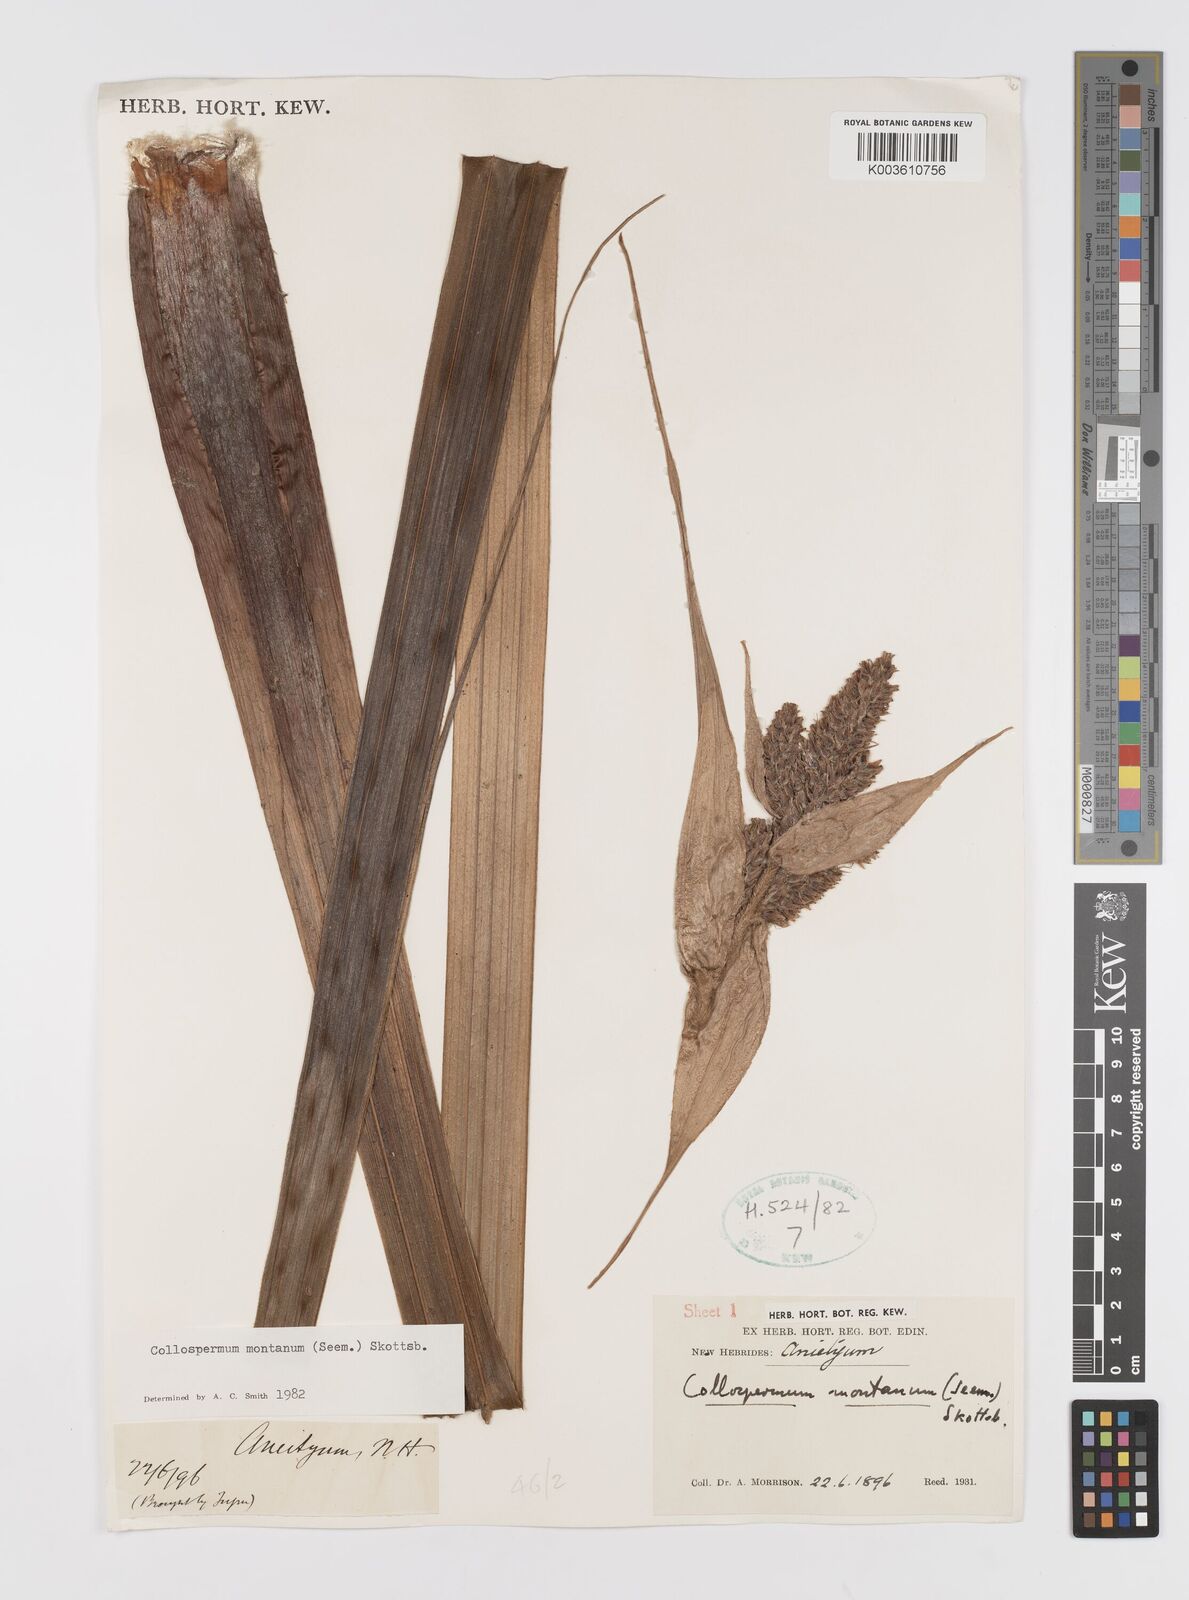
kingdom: Plantae
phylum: Tracheophyta
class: Liliopsida
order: Asparagales
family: Asteliaceae
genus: Astelia
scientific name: Astelia montana
